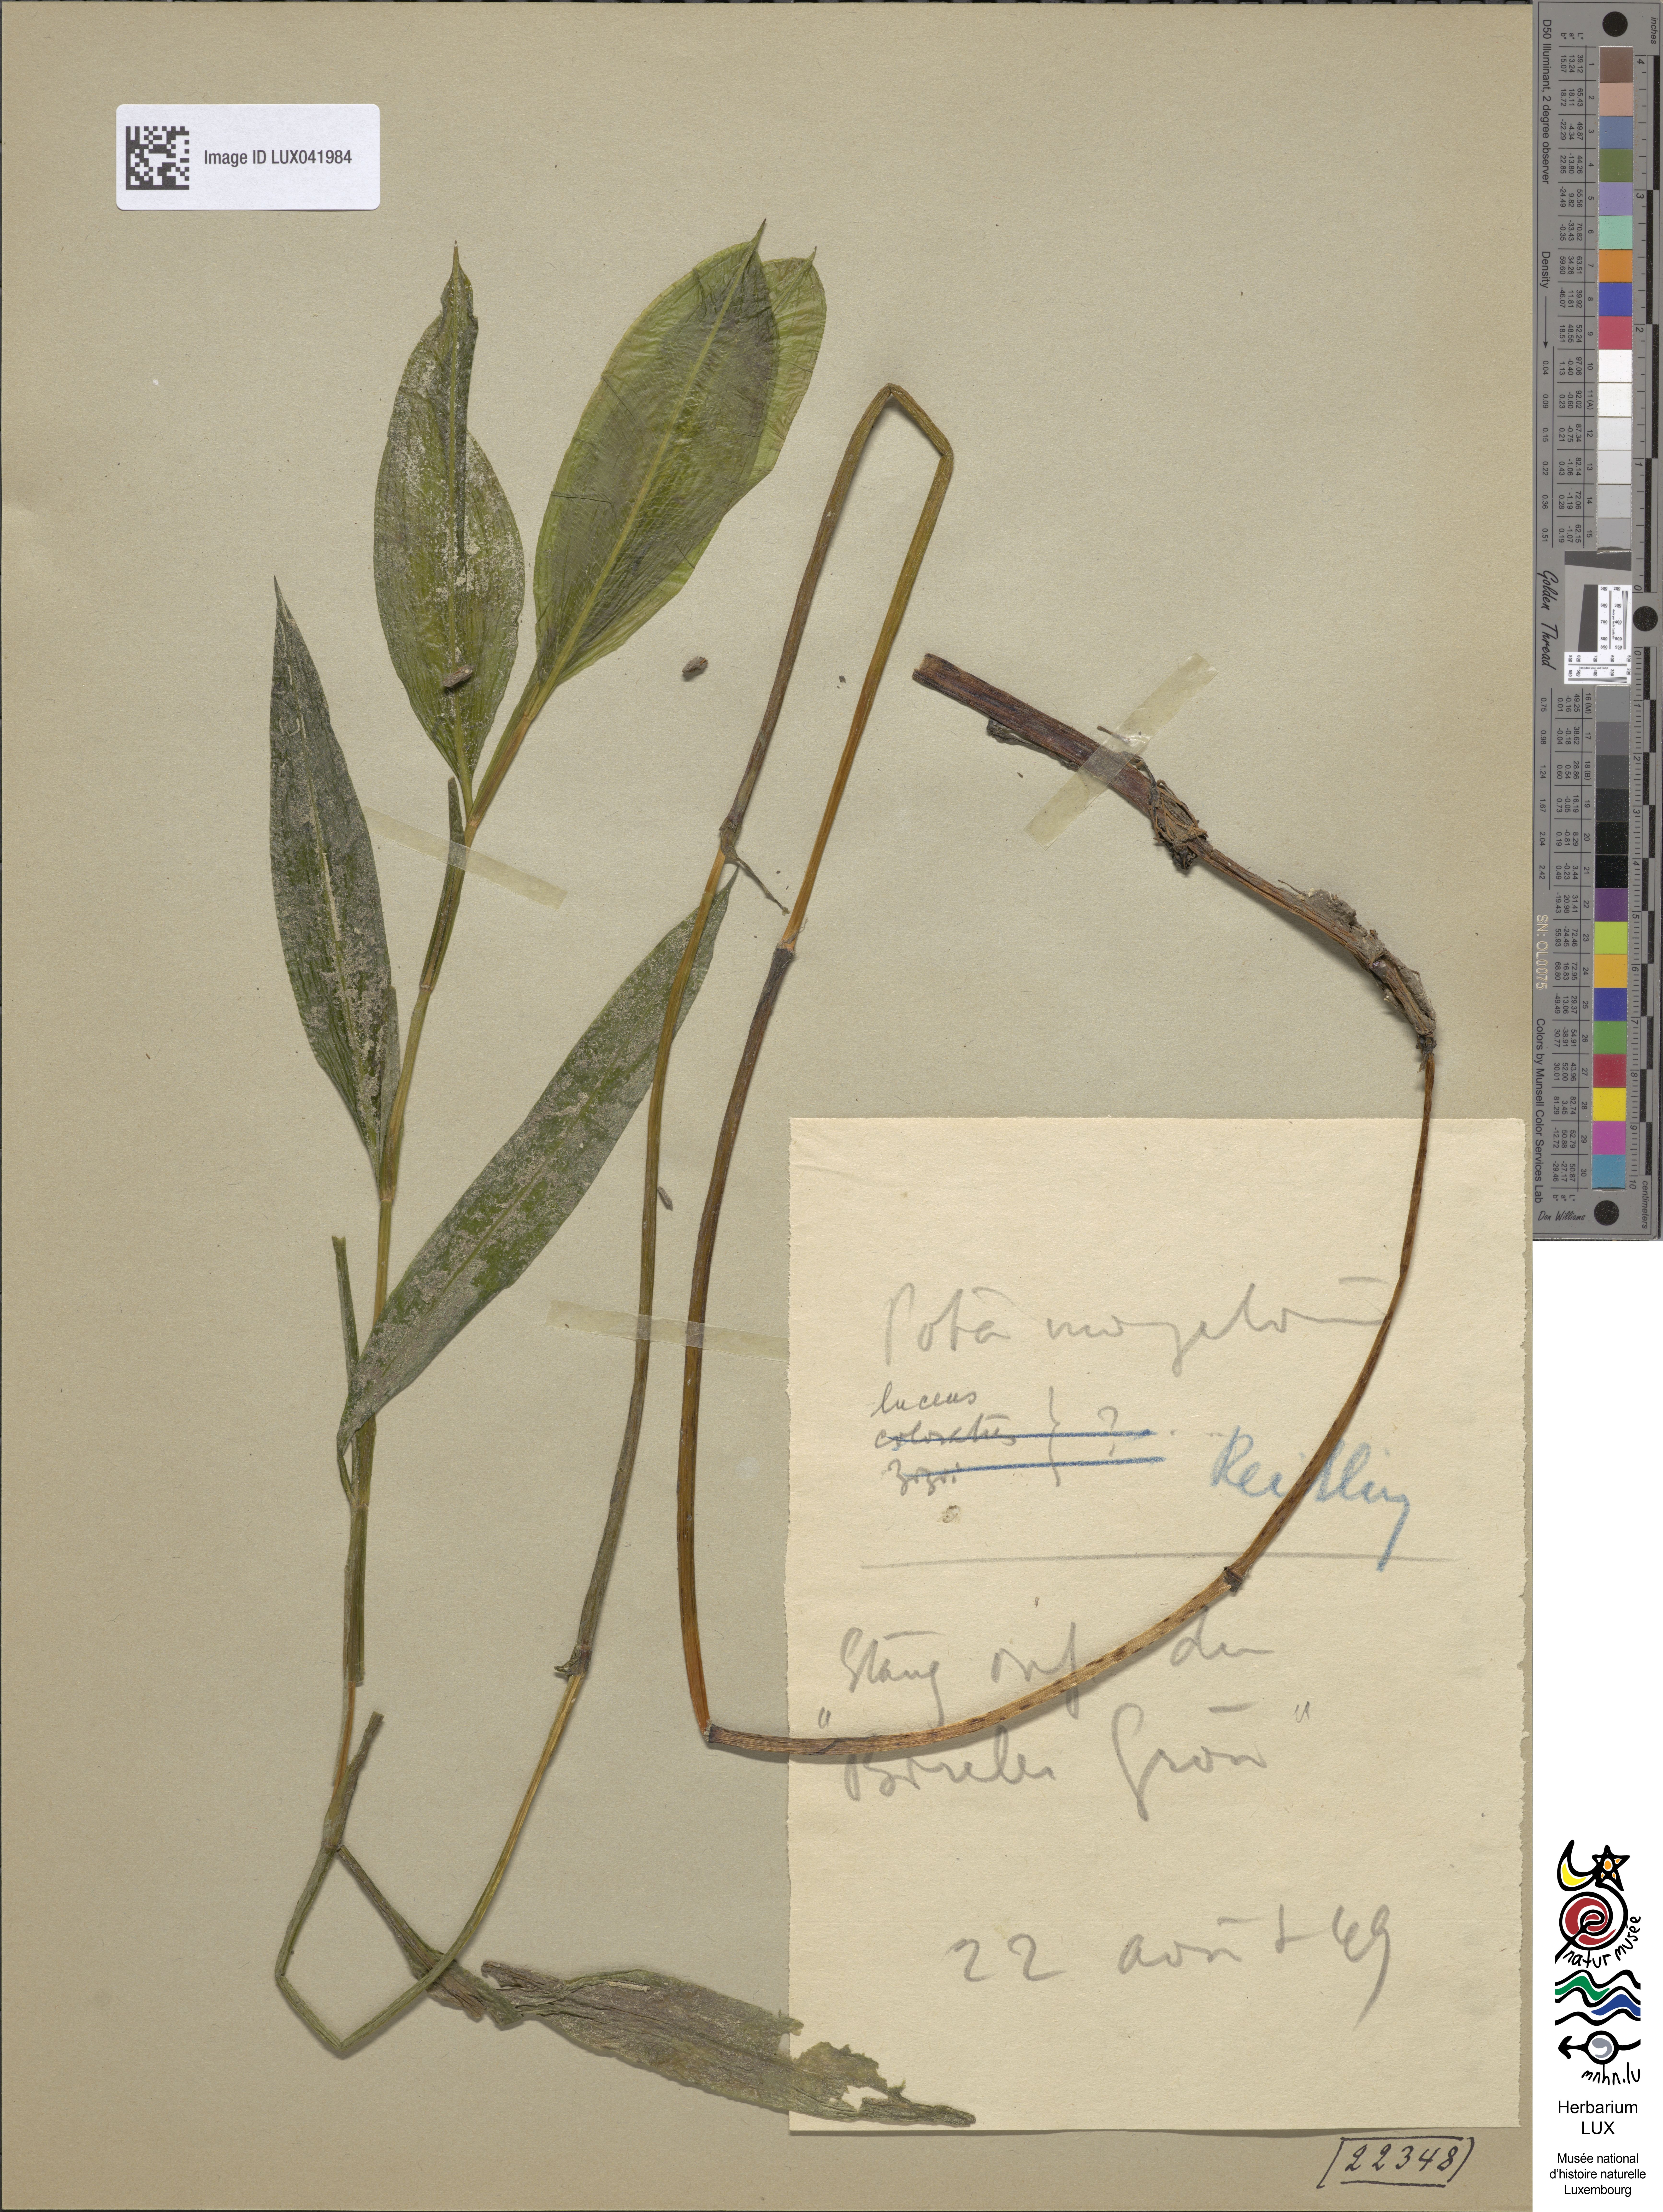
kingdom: Plantae
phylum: Tracheophyta
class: Liliopsida
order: Alismatales
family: Potamogetonaceae
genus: Potamogeton
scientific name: Potamogeton lucens
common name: Shining pondweed
